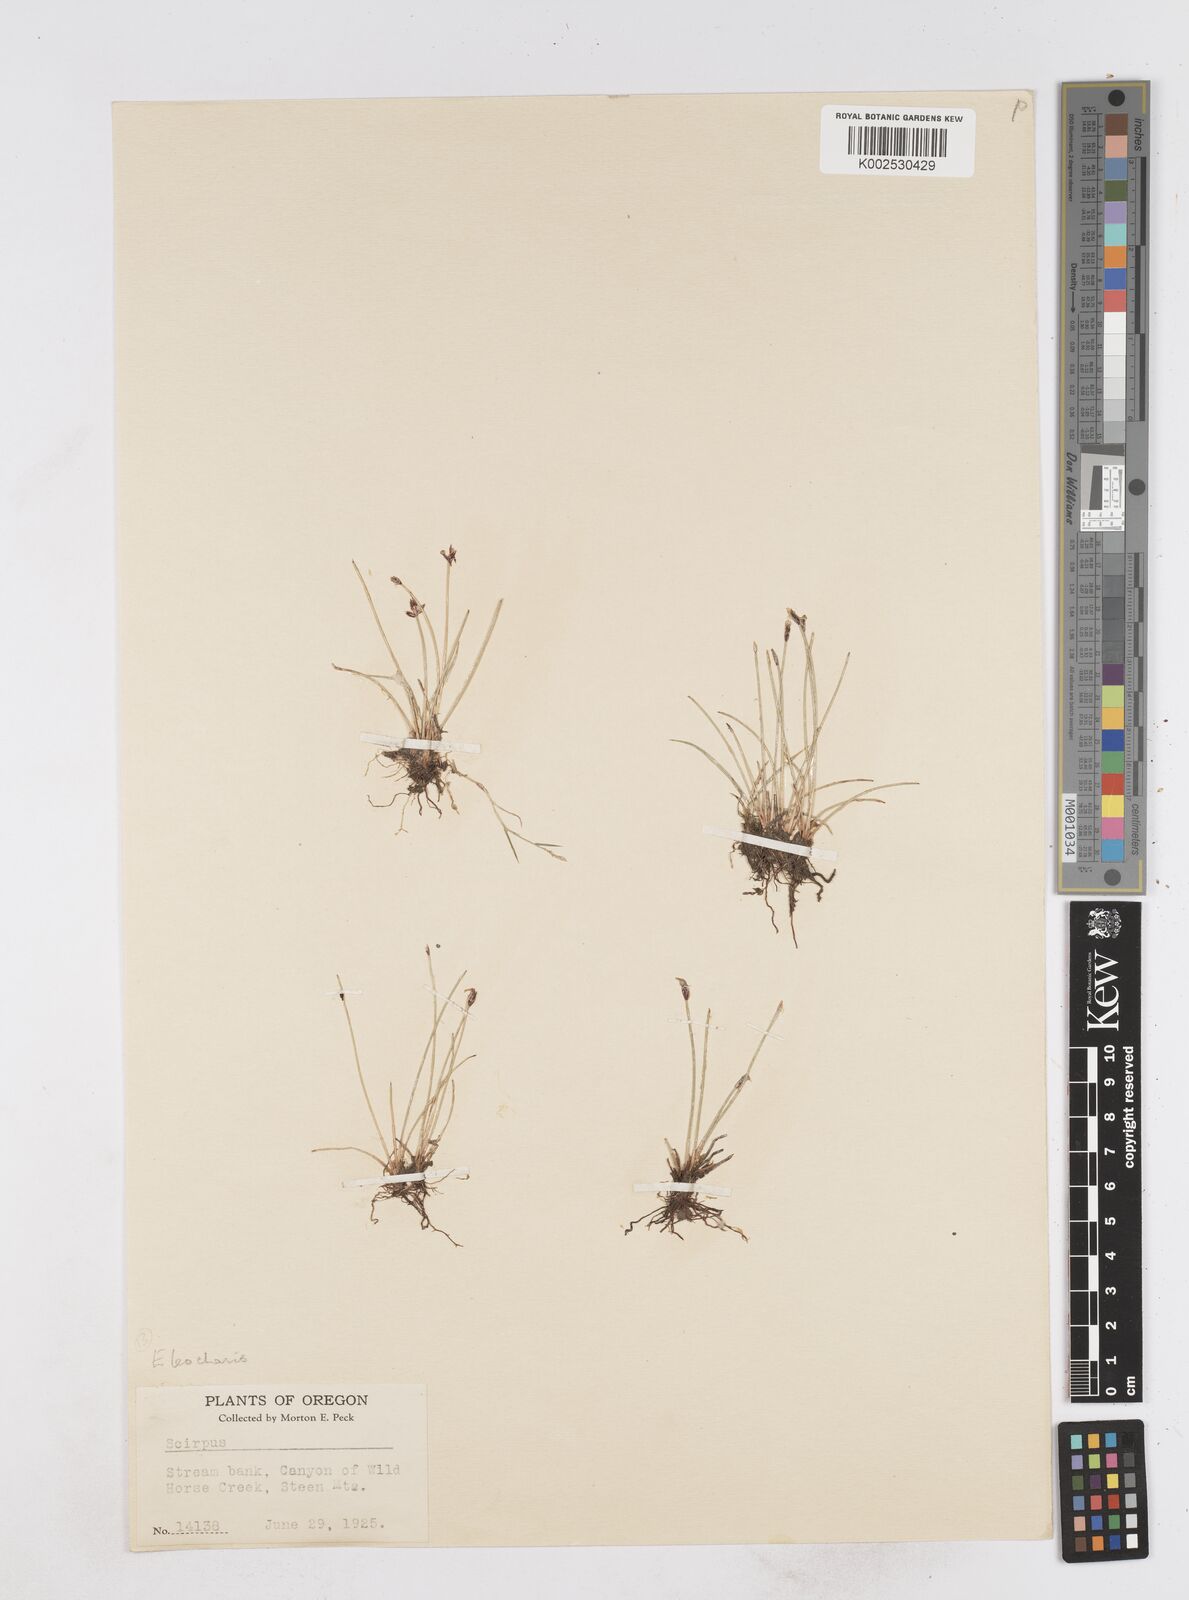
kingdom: Plantae
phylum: Tracheophyta
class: Liliopsida
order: Poales
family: Cyperaceae
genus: Eleocharis
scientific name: Eleocharis
